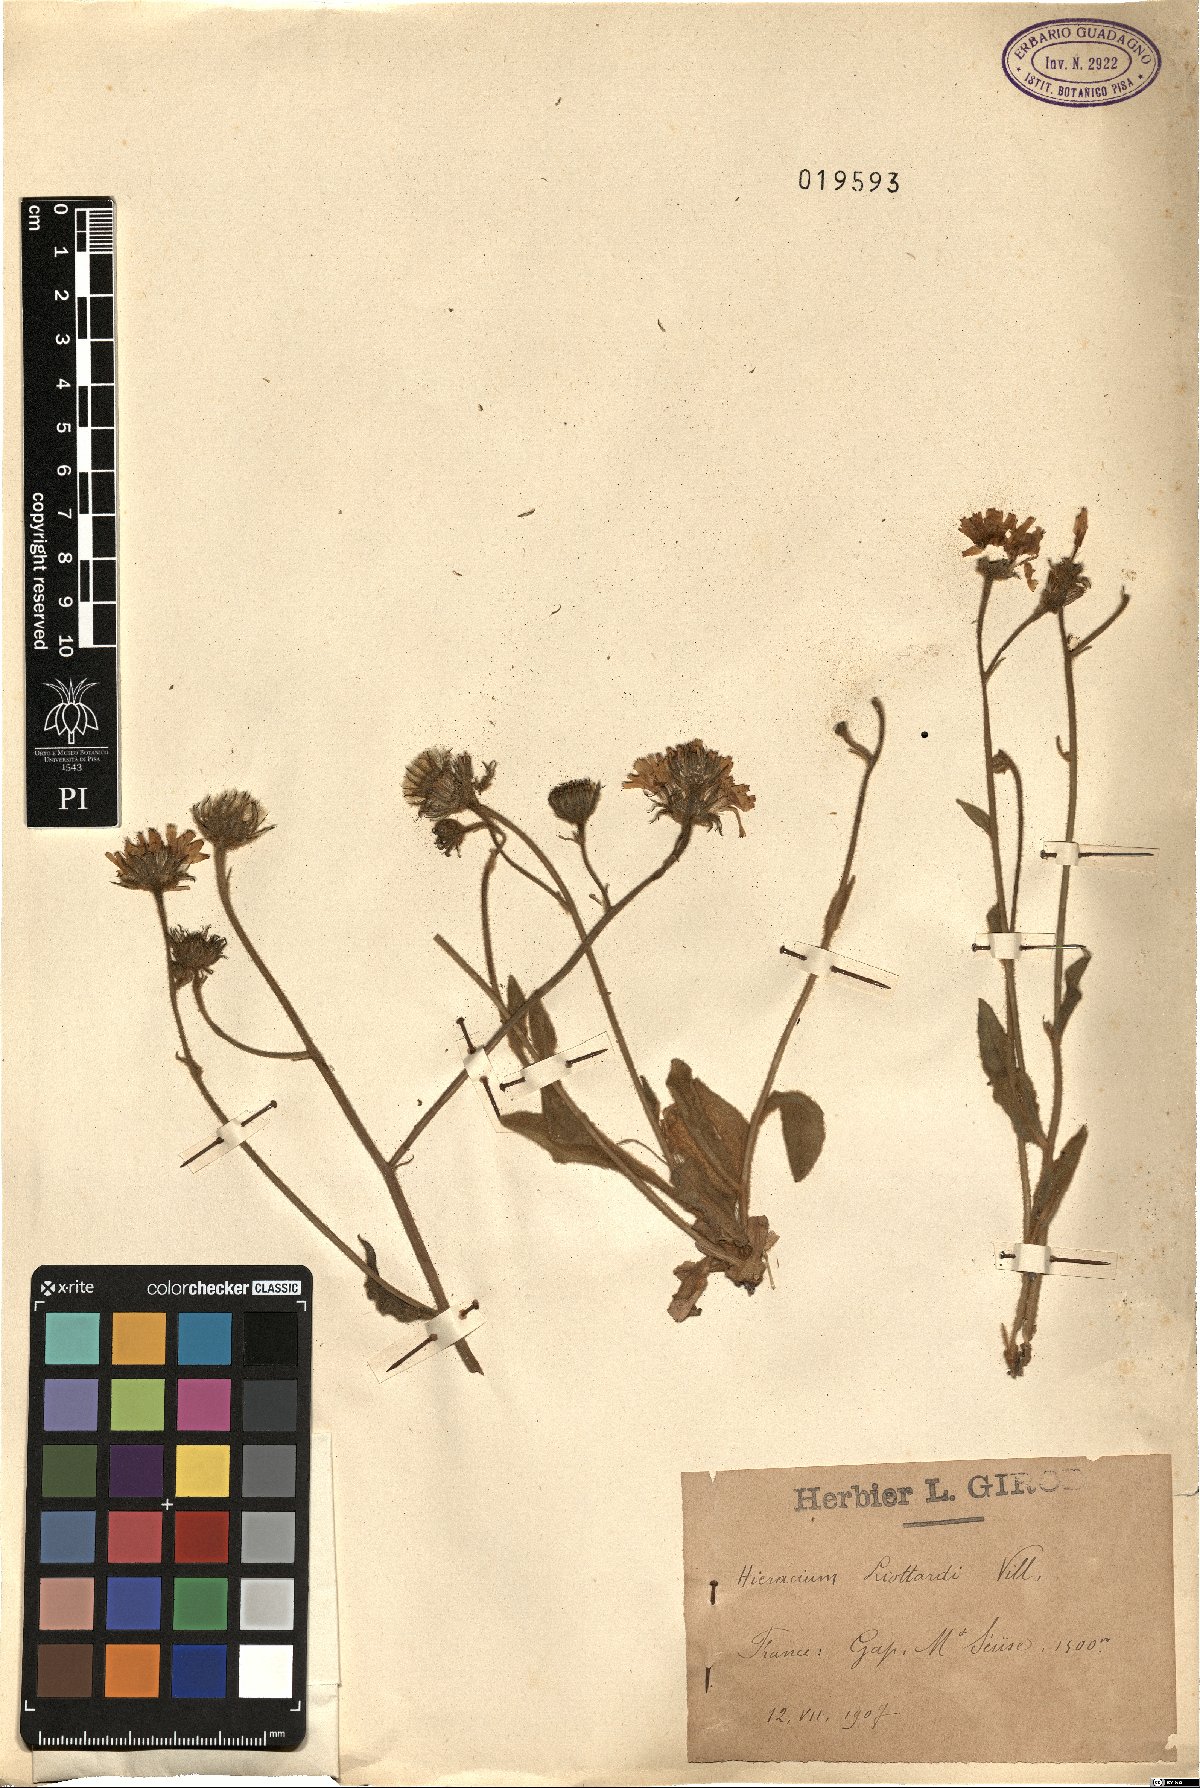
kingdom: Plantae
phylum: Tracheophyta
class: Magnoliopsida
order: Asterales
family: Asteraceae
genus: Hieracium
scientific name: Hieracium tomentosum
